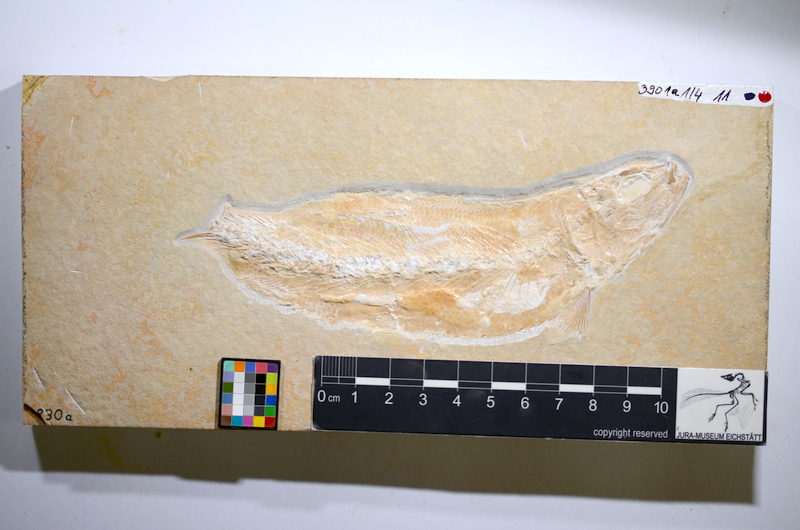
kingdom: Animalia
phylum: Chordata
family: Ascalaboidae
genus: Tharsis
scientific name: Tharsis dubius
